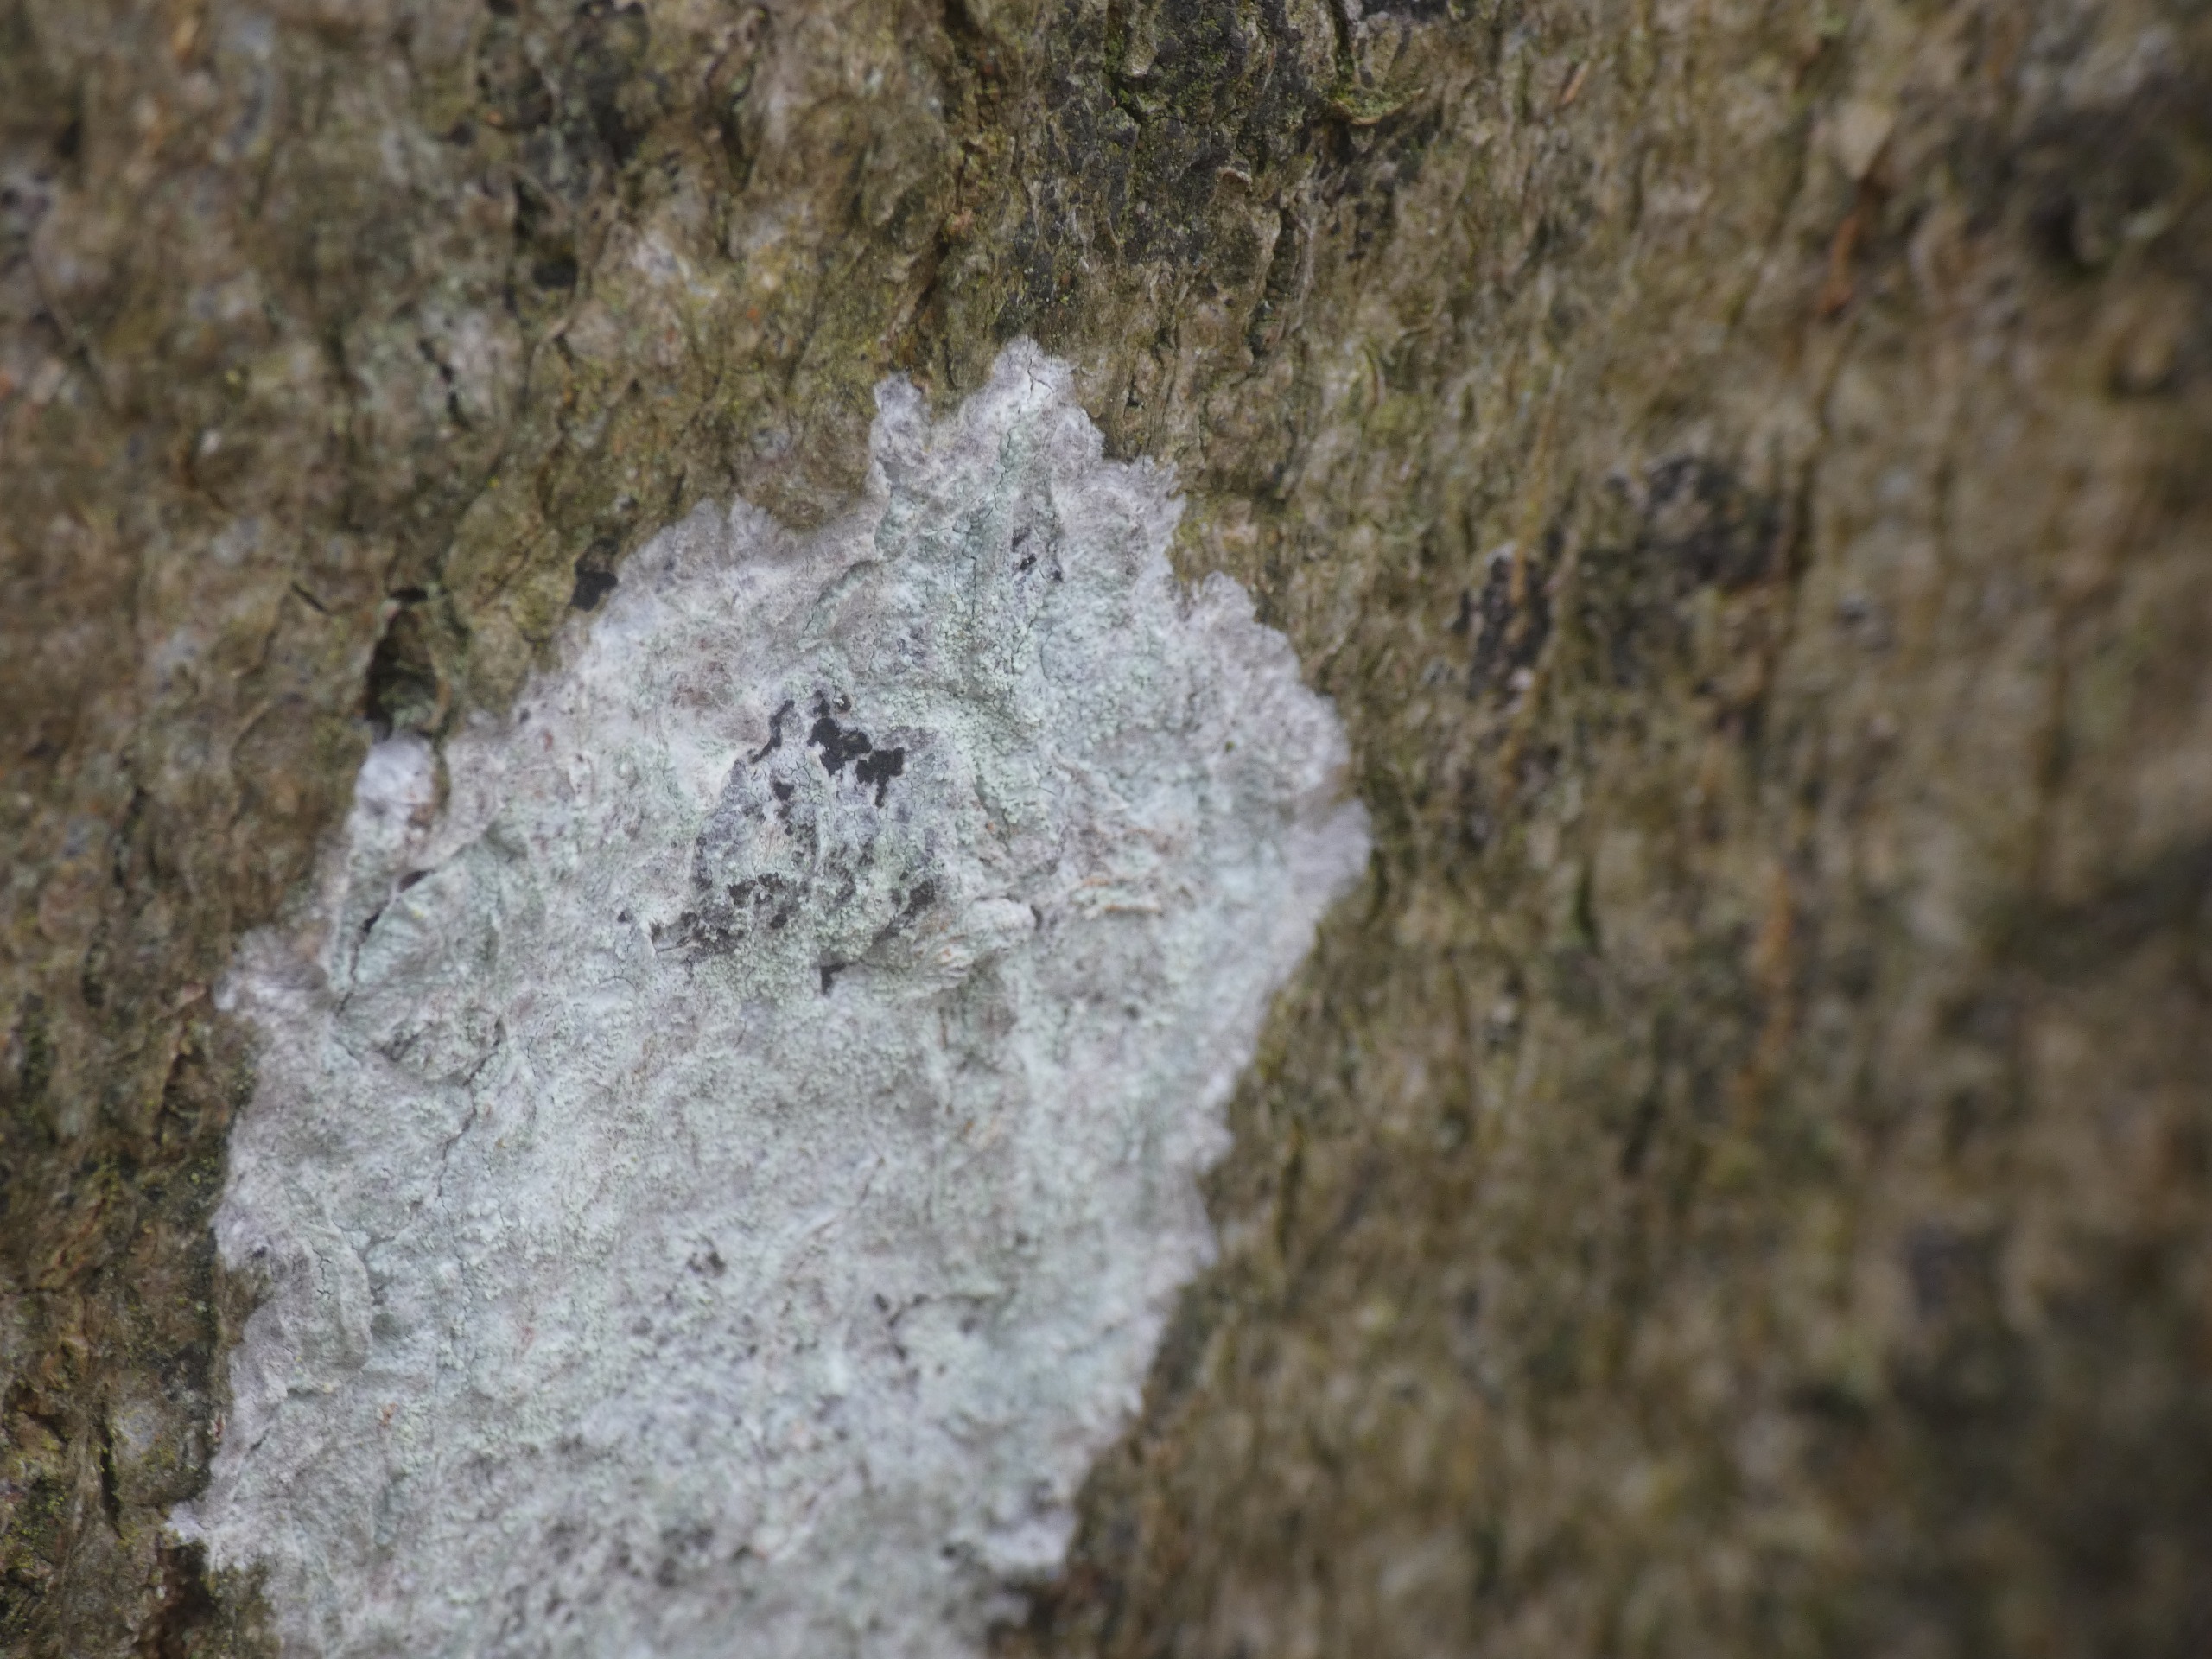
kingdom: Fungi
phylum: Ascomycota
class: Lecanoromycetes
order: Ostropales
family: Phlyctidaceae
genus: Phlyctis
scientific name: Phlyctis argena
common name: Almindelig sølvlav
